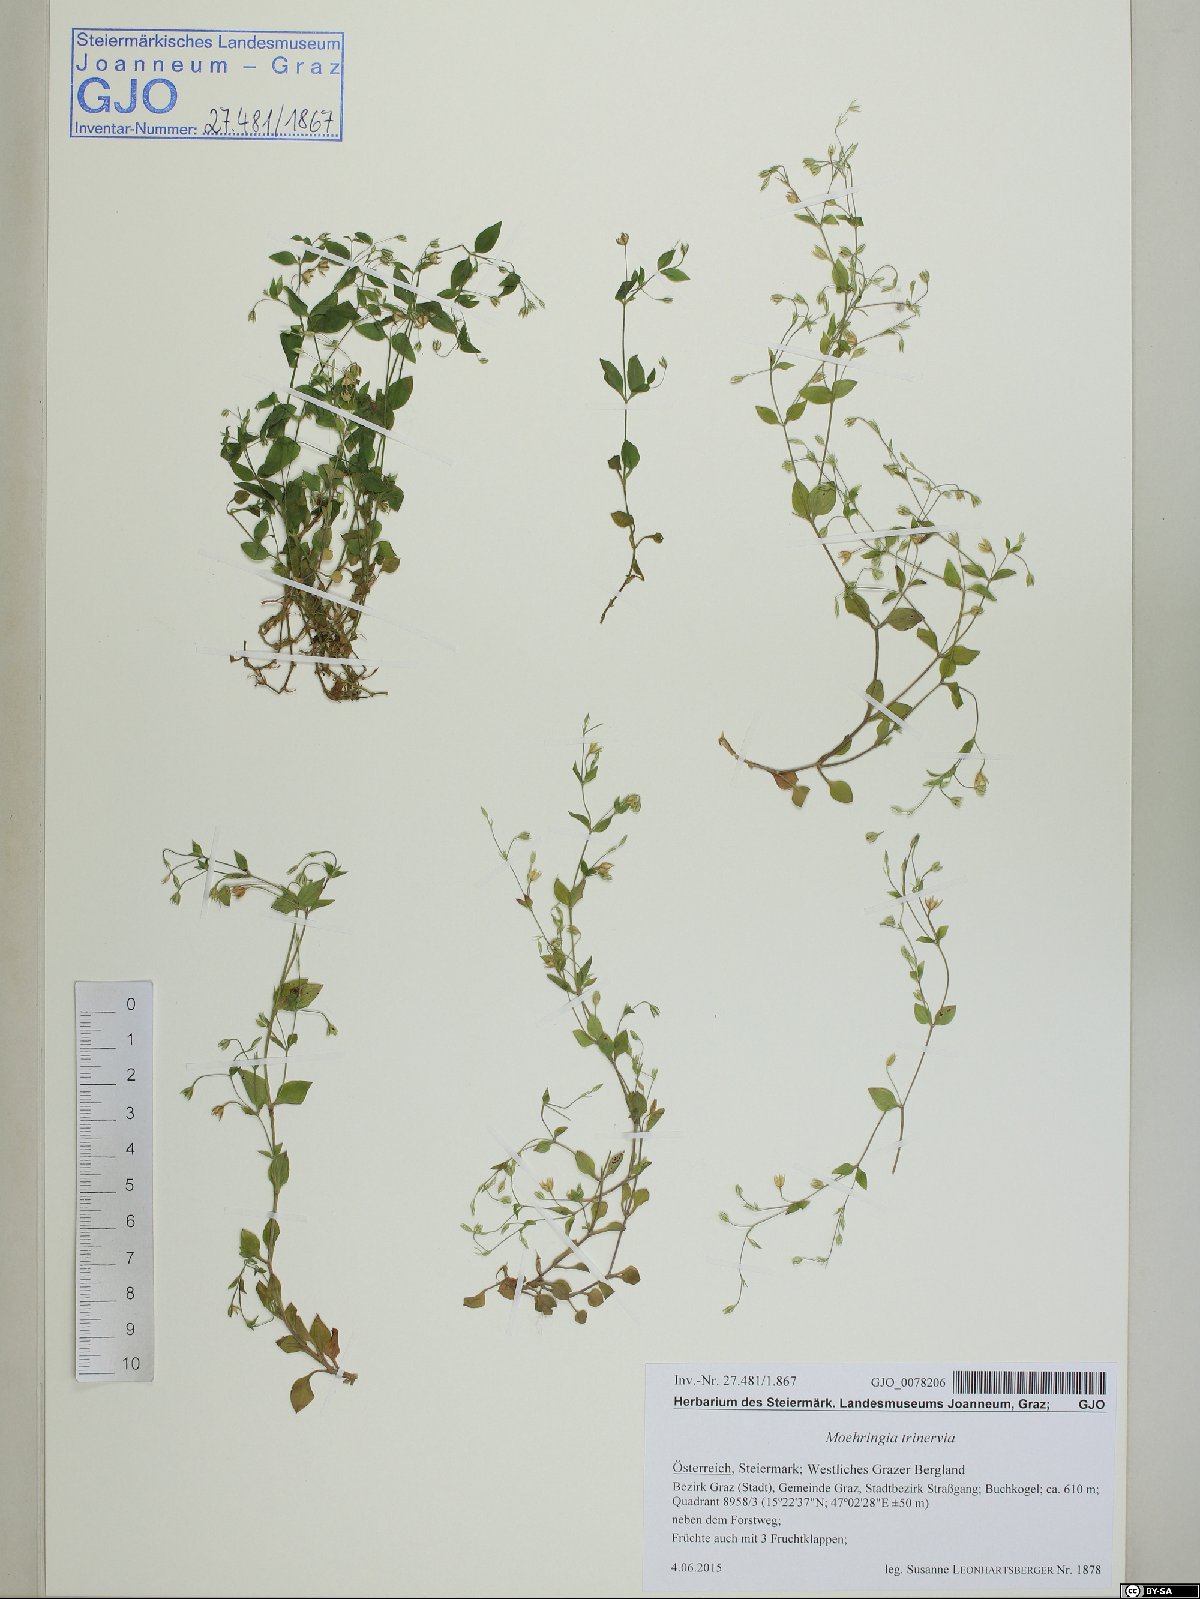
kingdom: Plantae
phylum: Tracheophyta
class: Magnoliopsida
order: Caryophyllales
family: Caryophyllaceae
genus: Moehringia
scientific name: Moehringia trinervia
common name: Three-nerved sandwort
